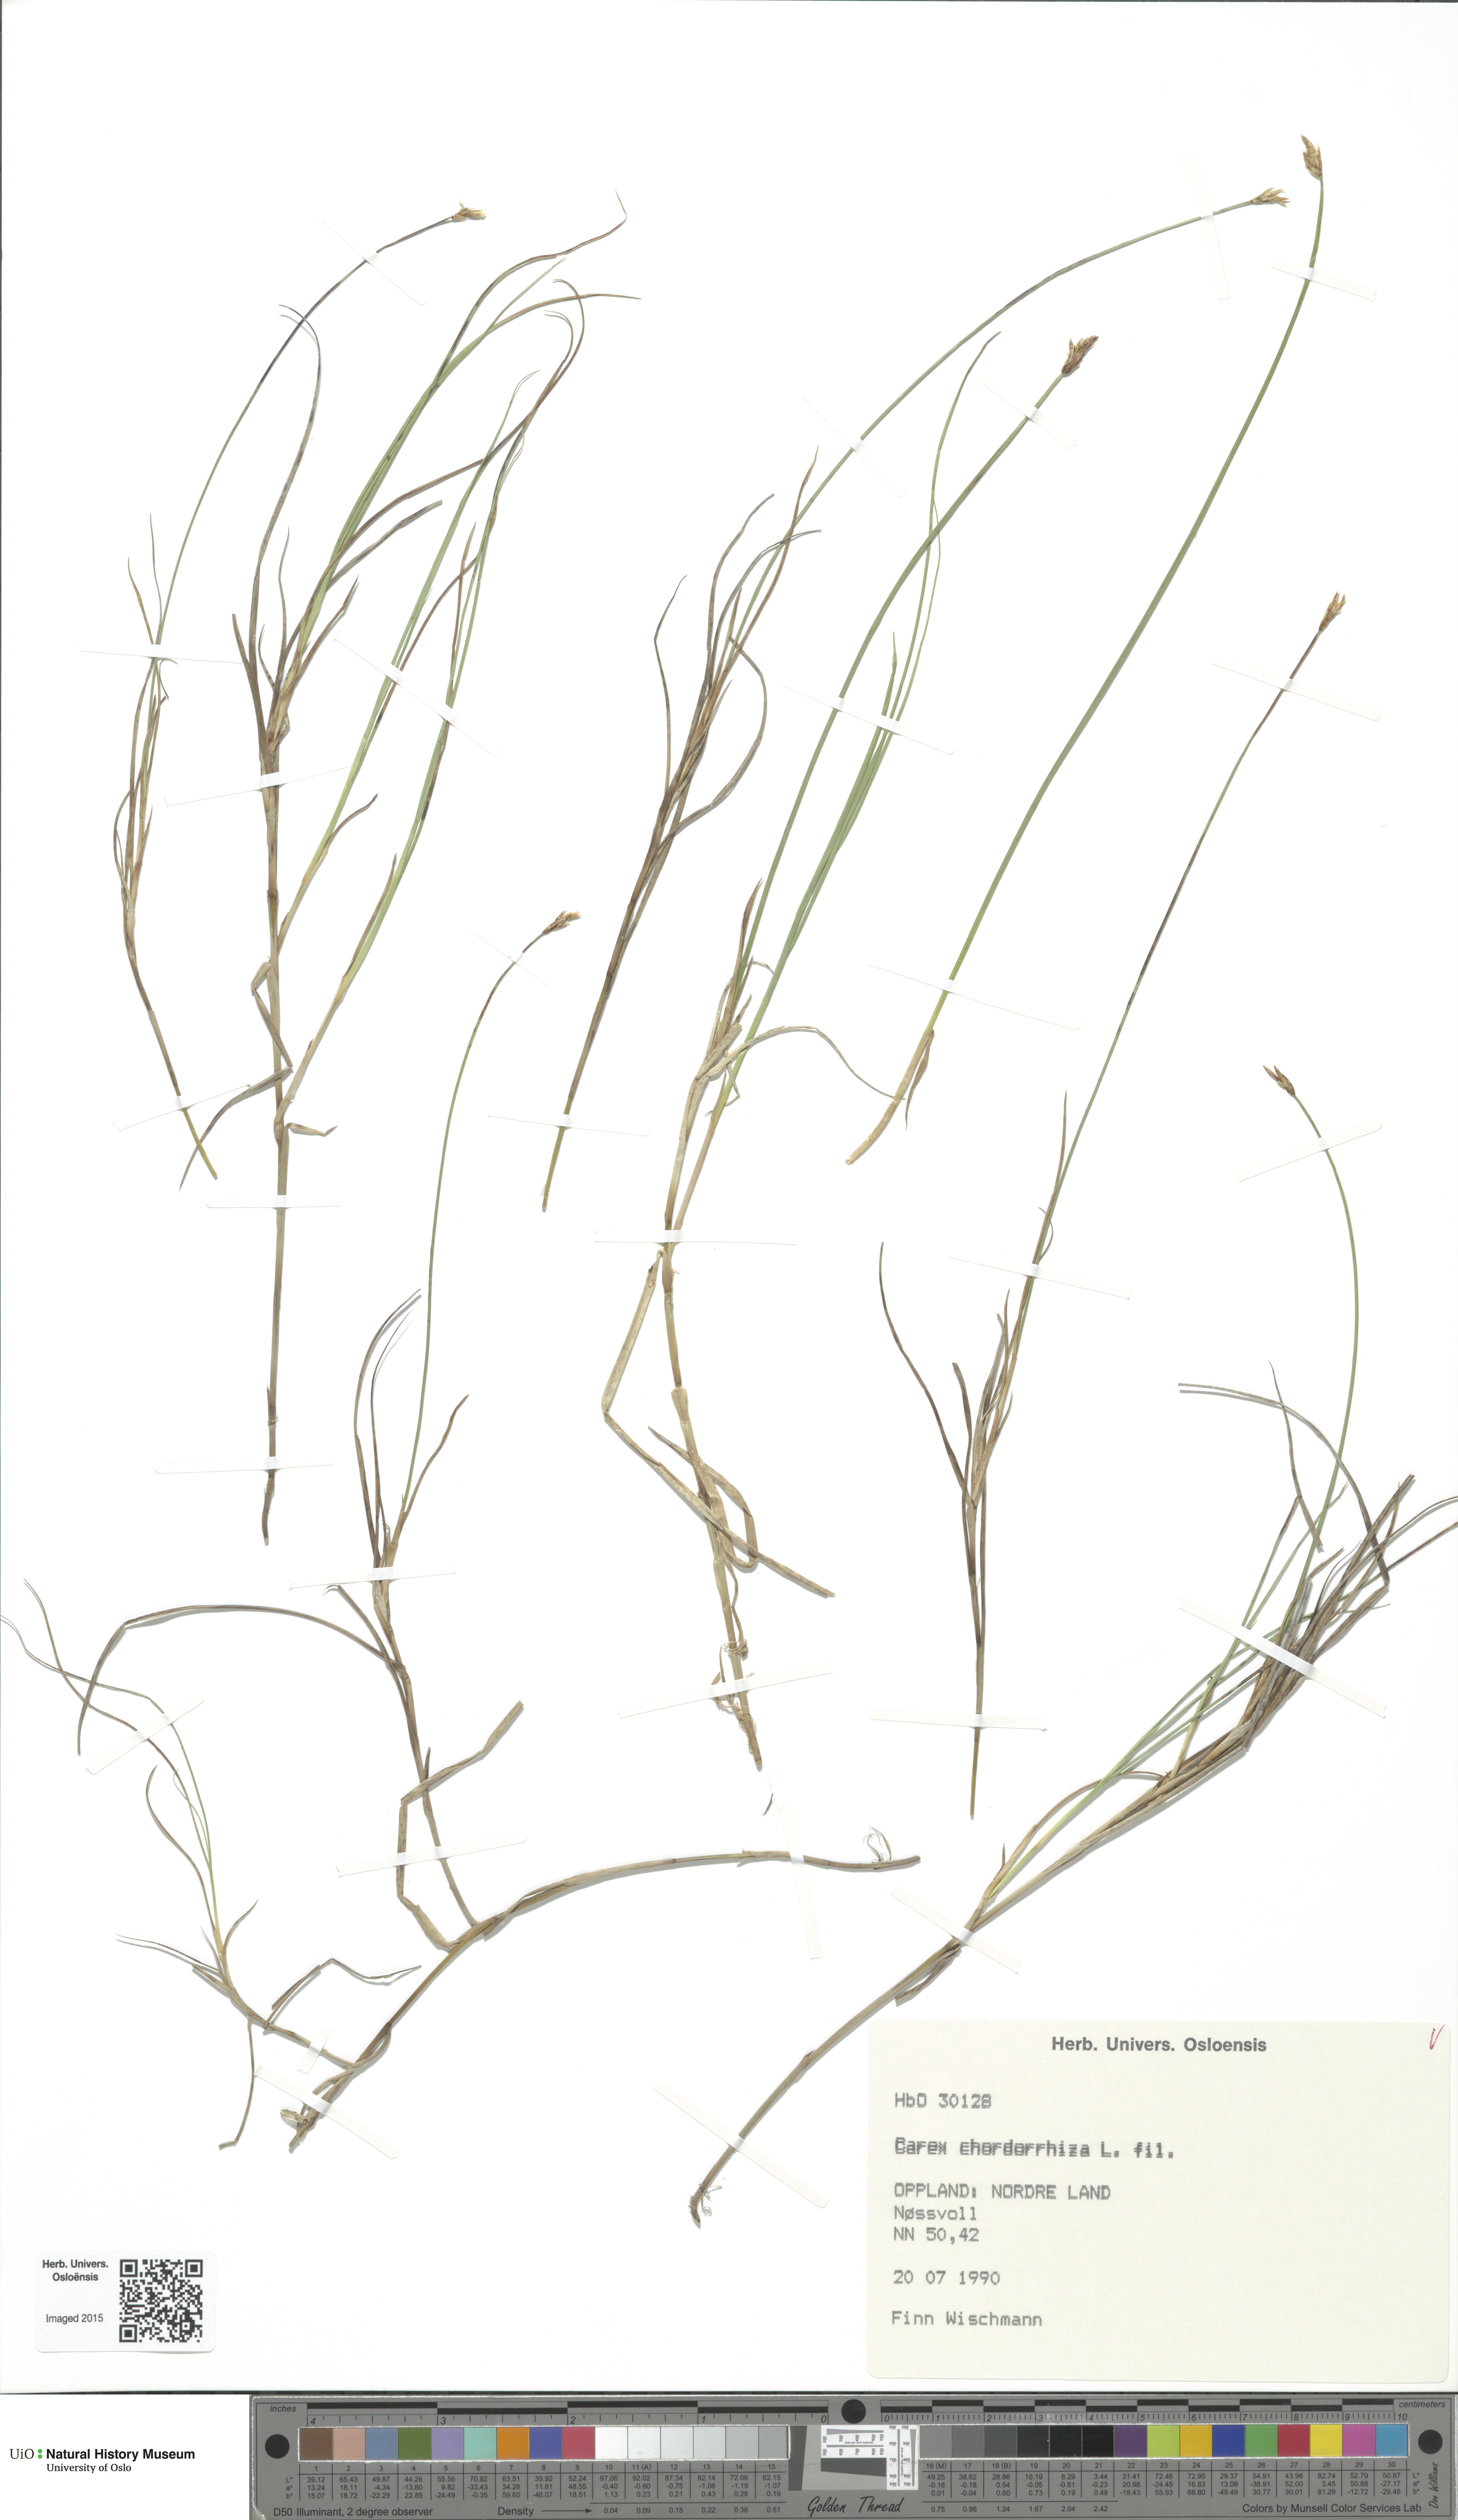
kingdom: Plantae
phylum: Tracheophyta
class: Liliopsida
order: Poales
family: Cyperaceae
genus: Carex
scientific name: Carex chordorrhiza
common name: String sedge
